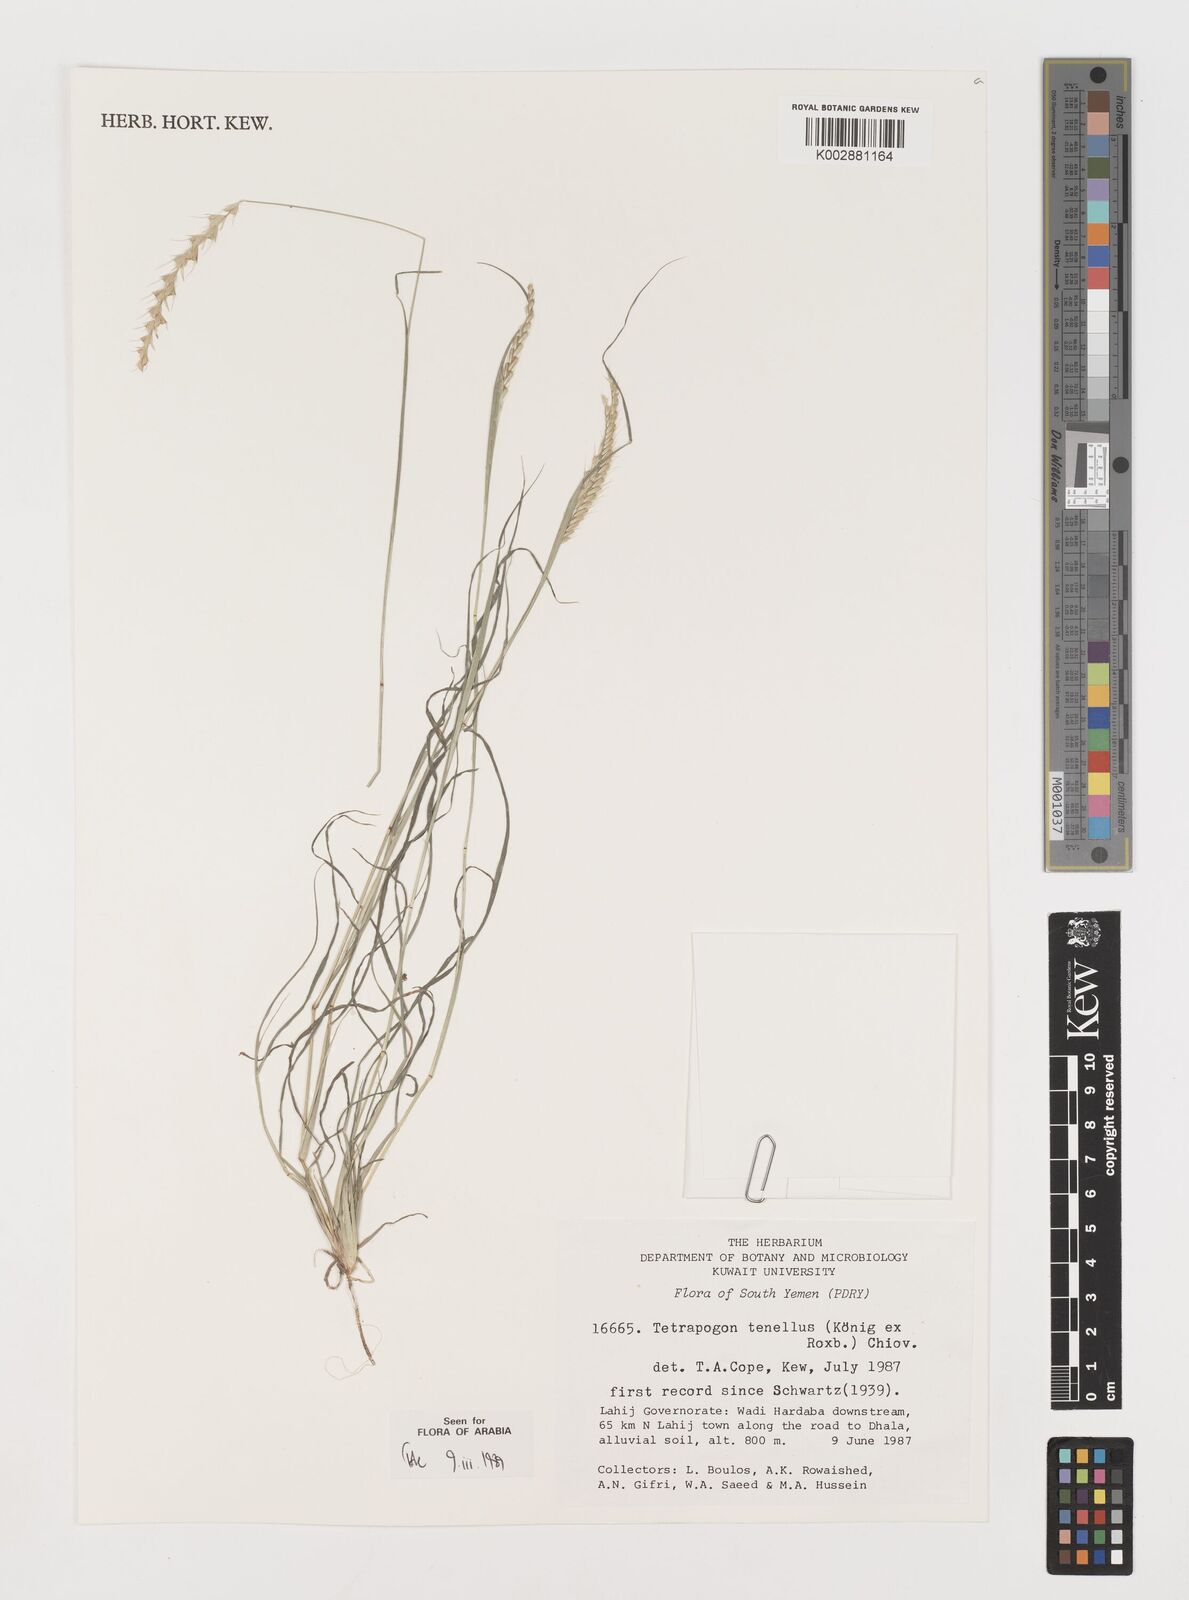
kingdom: Plantae
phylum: Tracheophyta
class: Liliopsida
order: Poales
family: Poaceae
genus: Tetrapogon
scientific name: Tetrapogon tenellus
